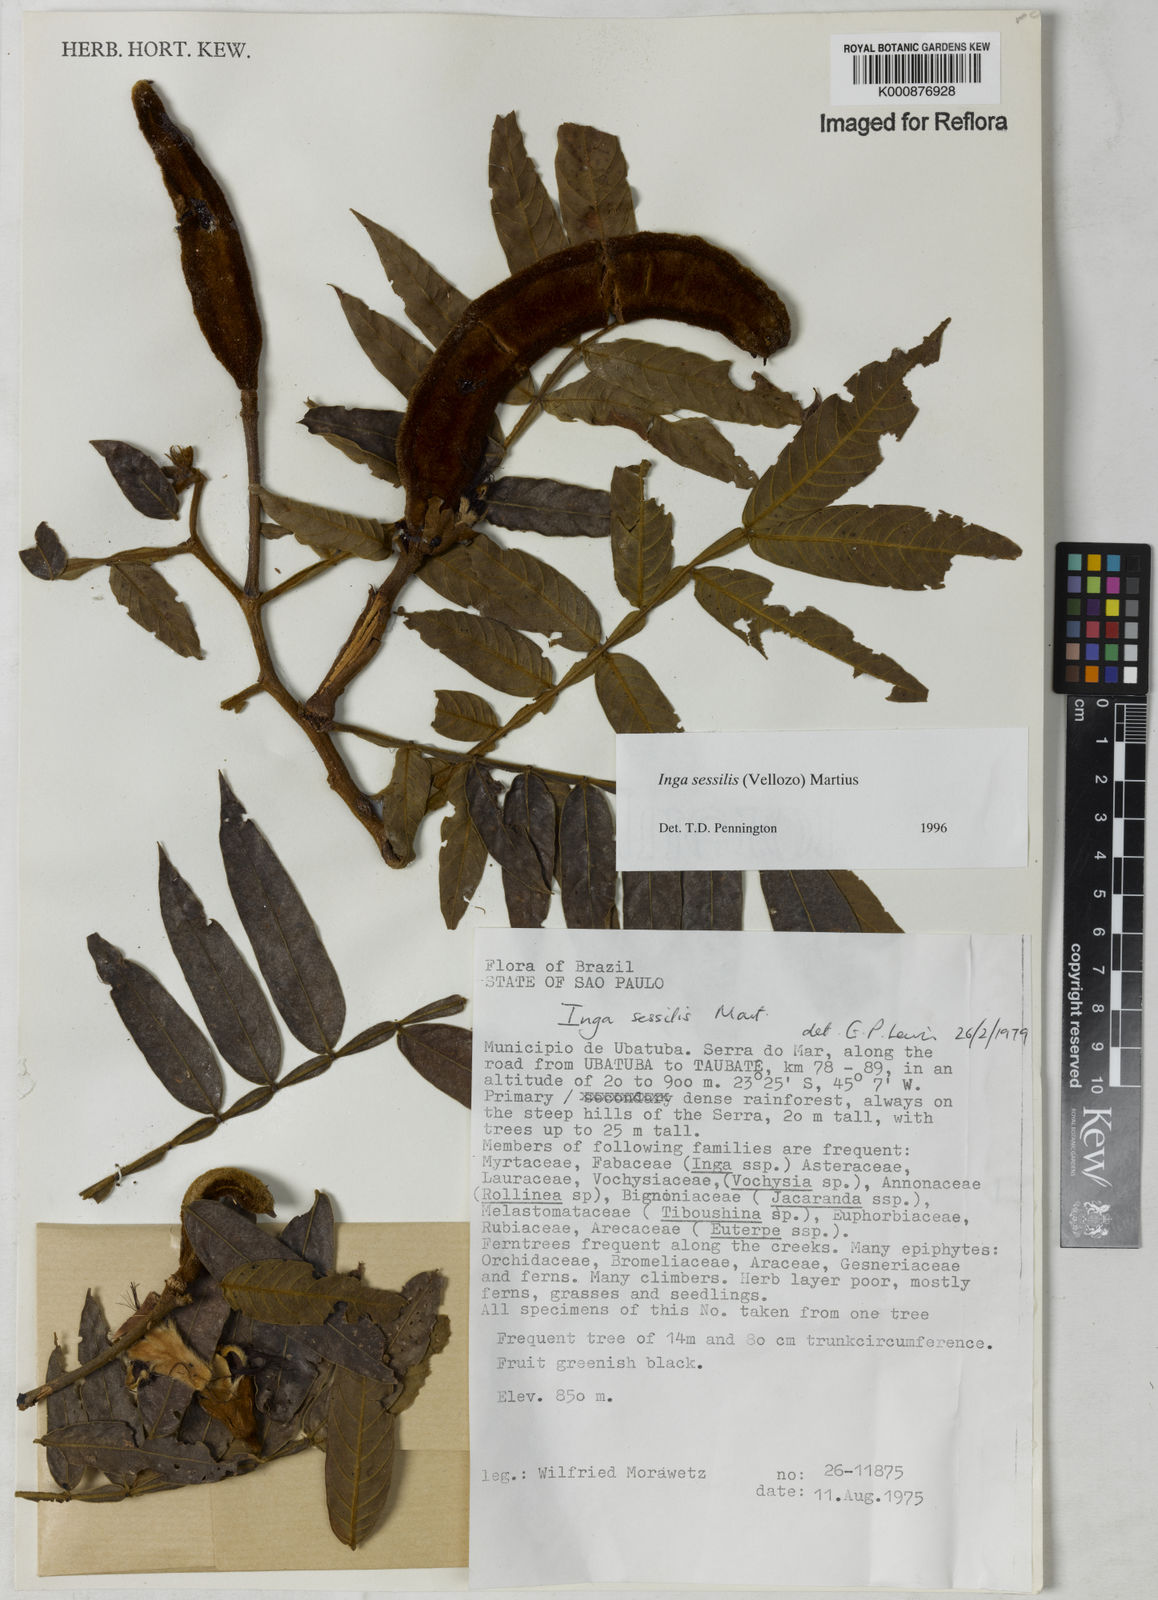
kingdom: Plantae
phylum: Tracheophyta
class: Magnoliopsida
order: Fabales
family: Fabaceae
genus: Inga
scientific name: Inga sessilis
